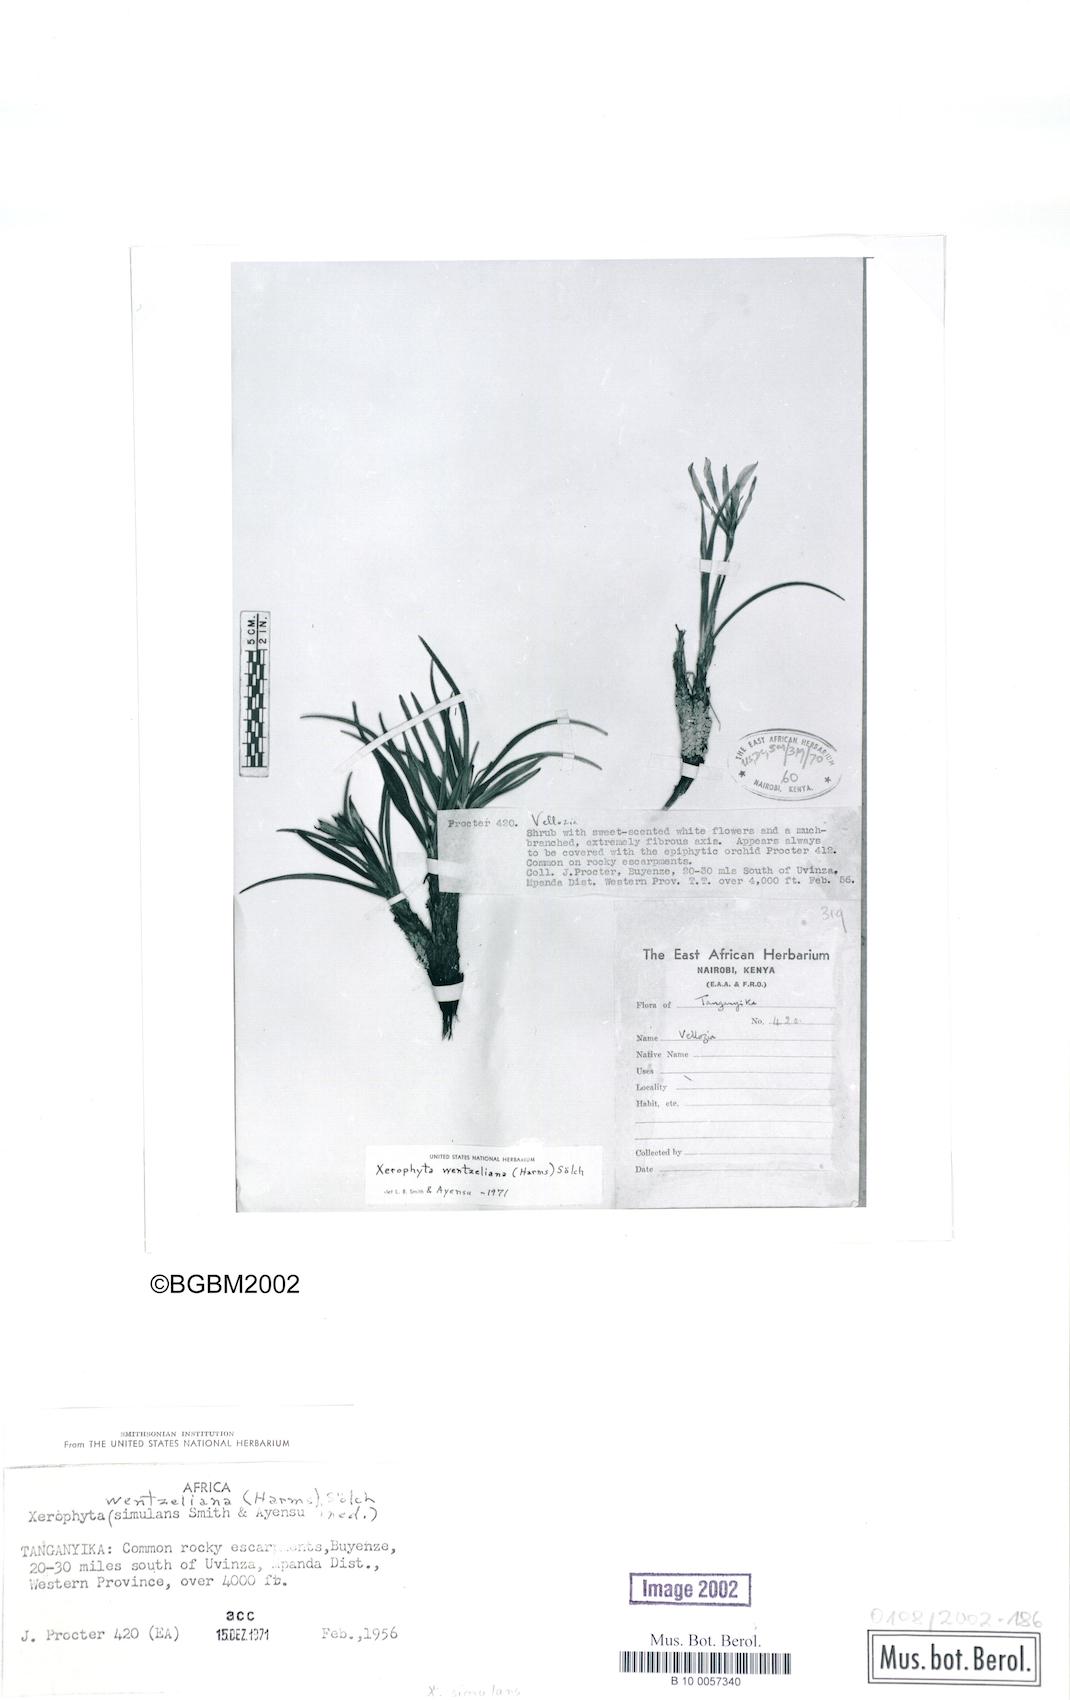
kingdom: Plantae
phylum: Tracheophyta
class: Liliopsida
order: Pandanales
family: Velloziaceae
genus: Xerophyta
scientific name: Xerophyta simulans
